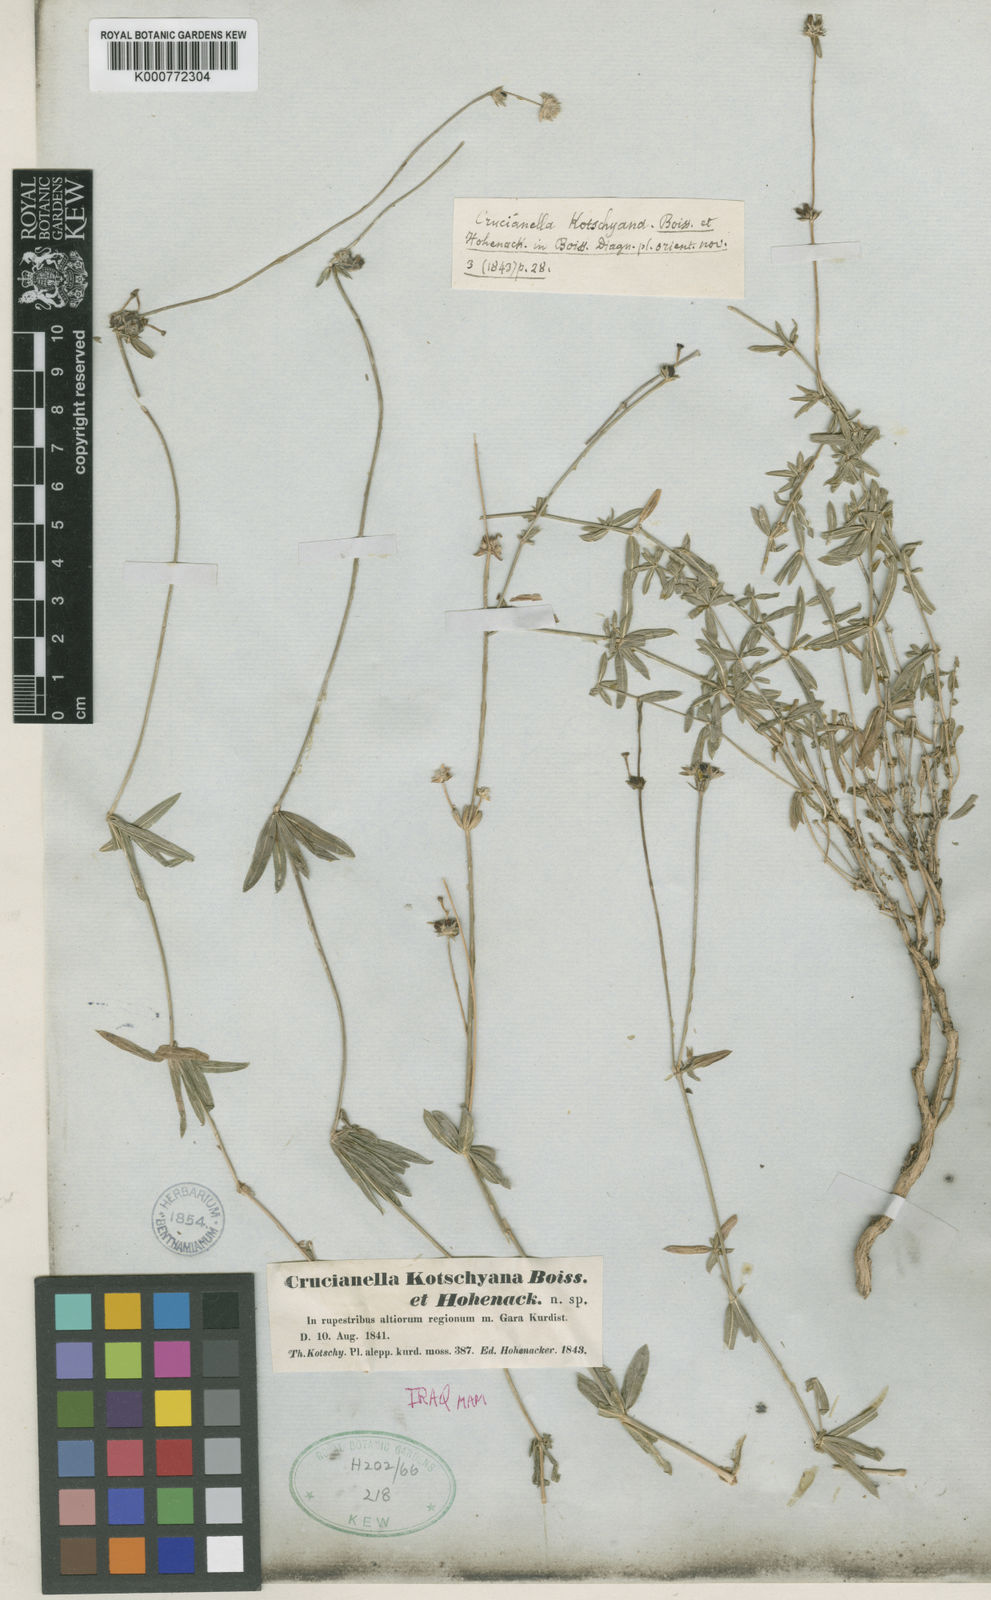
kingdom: Plantae
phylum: Tracheophyta
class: Magnoliopsida
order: Gentianales
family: Rubiaceae
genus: Valantia
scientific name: Valantia hispida
